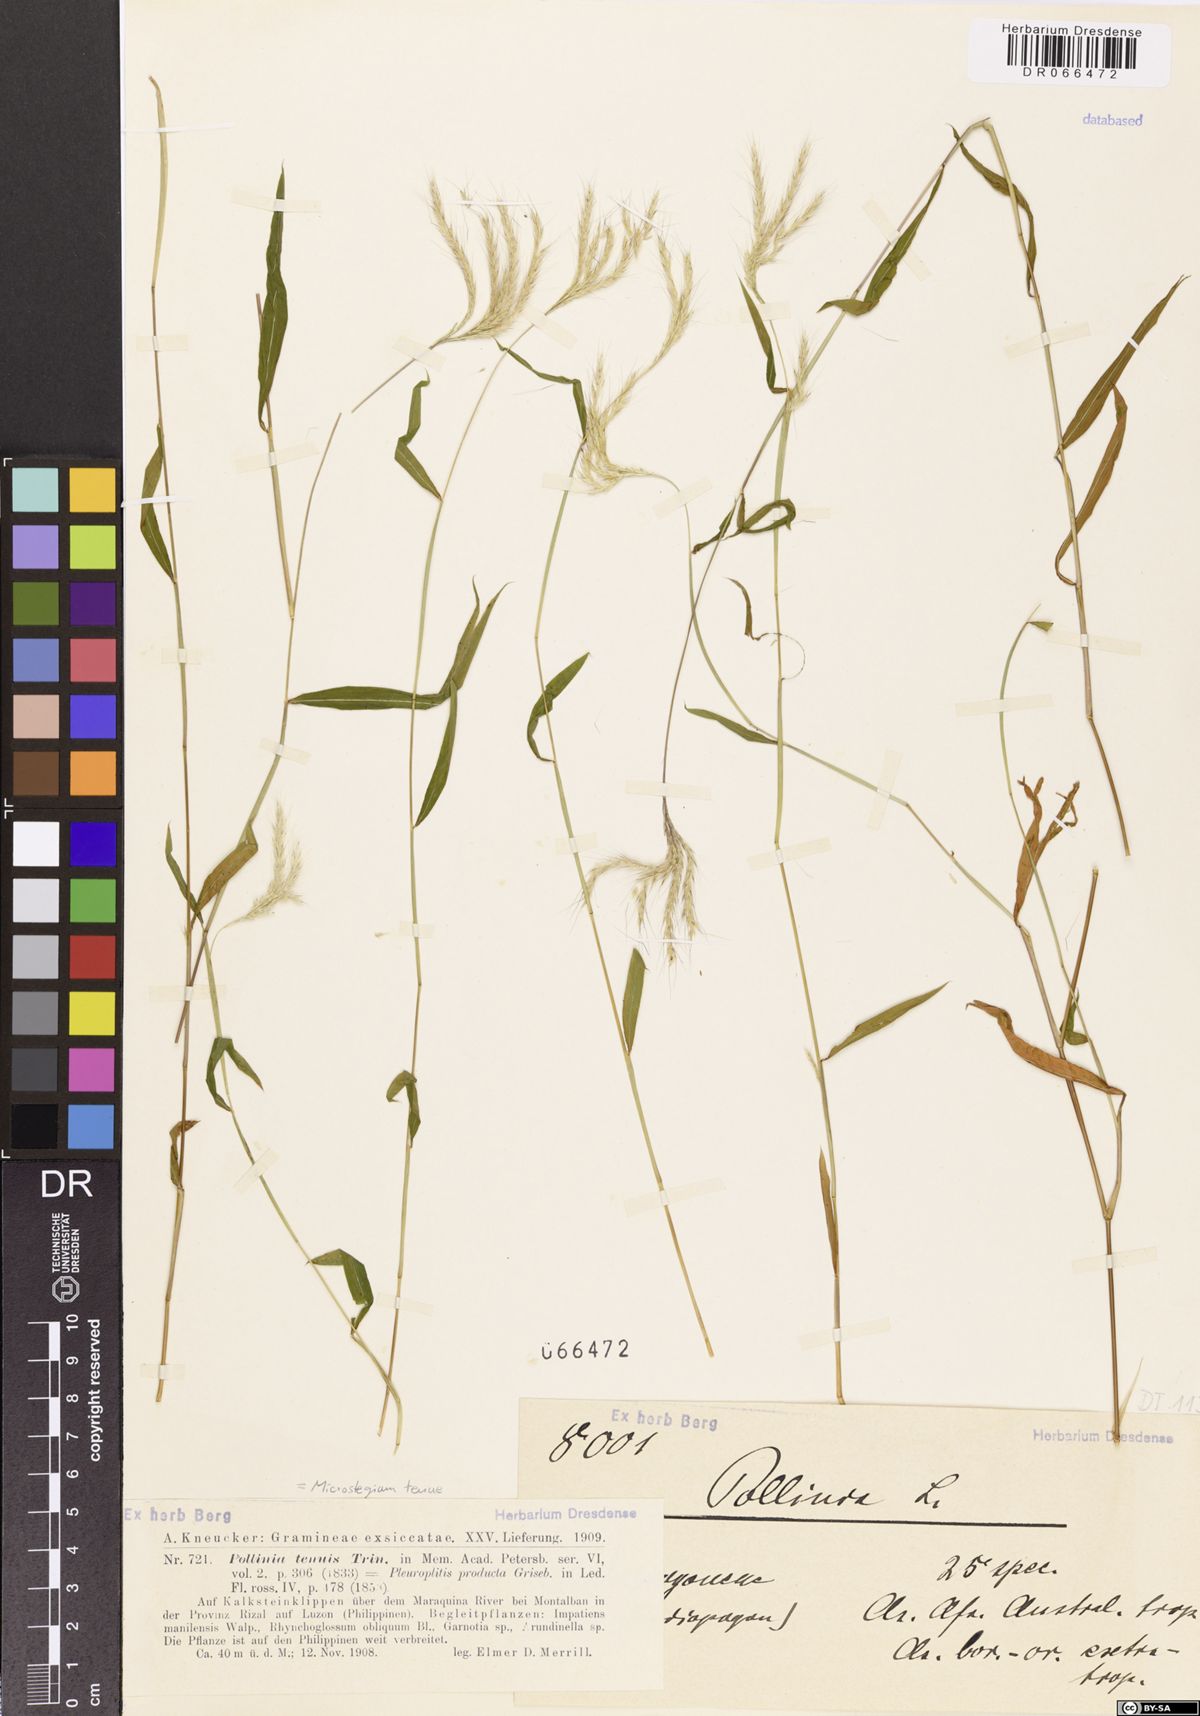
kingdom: Plantae
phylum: Tracheophyta
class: Liliopsida
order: Poales
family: Poaceae
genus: Microstegium
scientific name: Microstegium tenue
